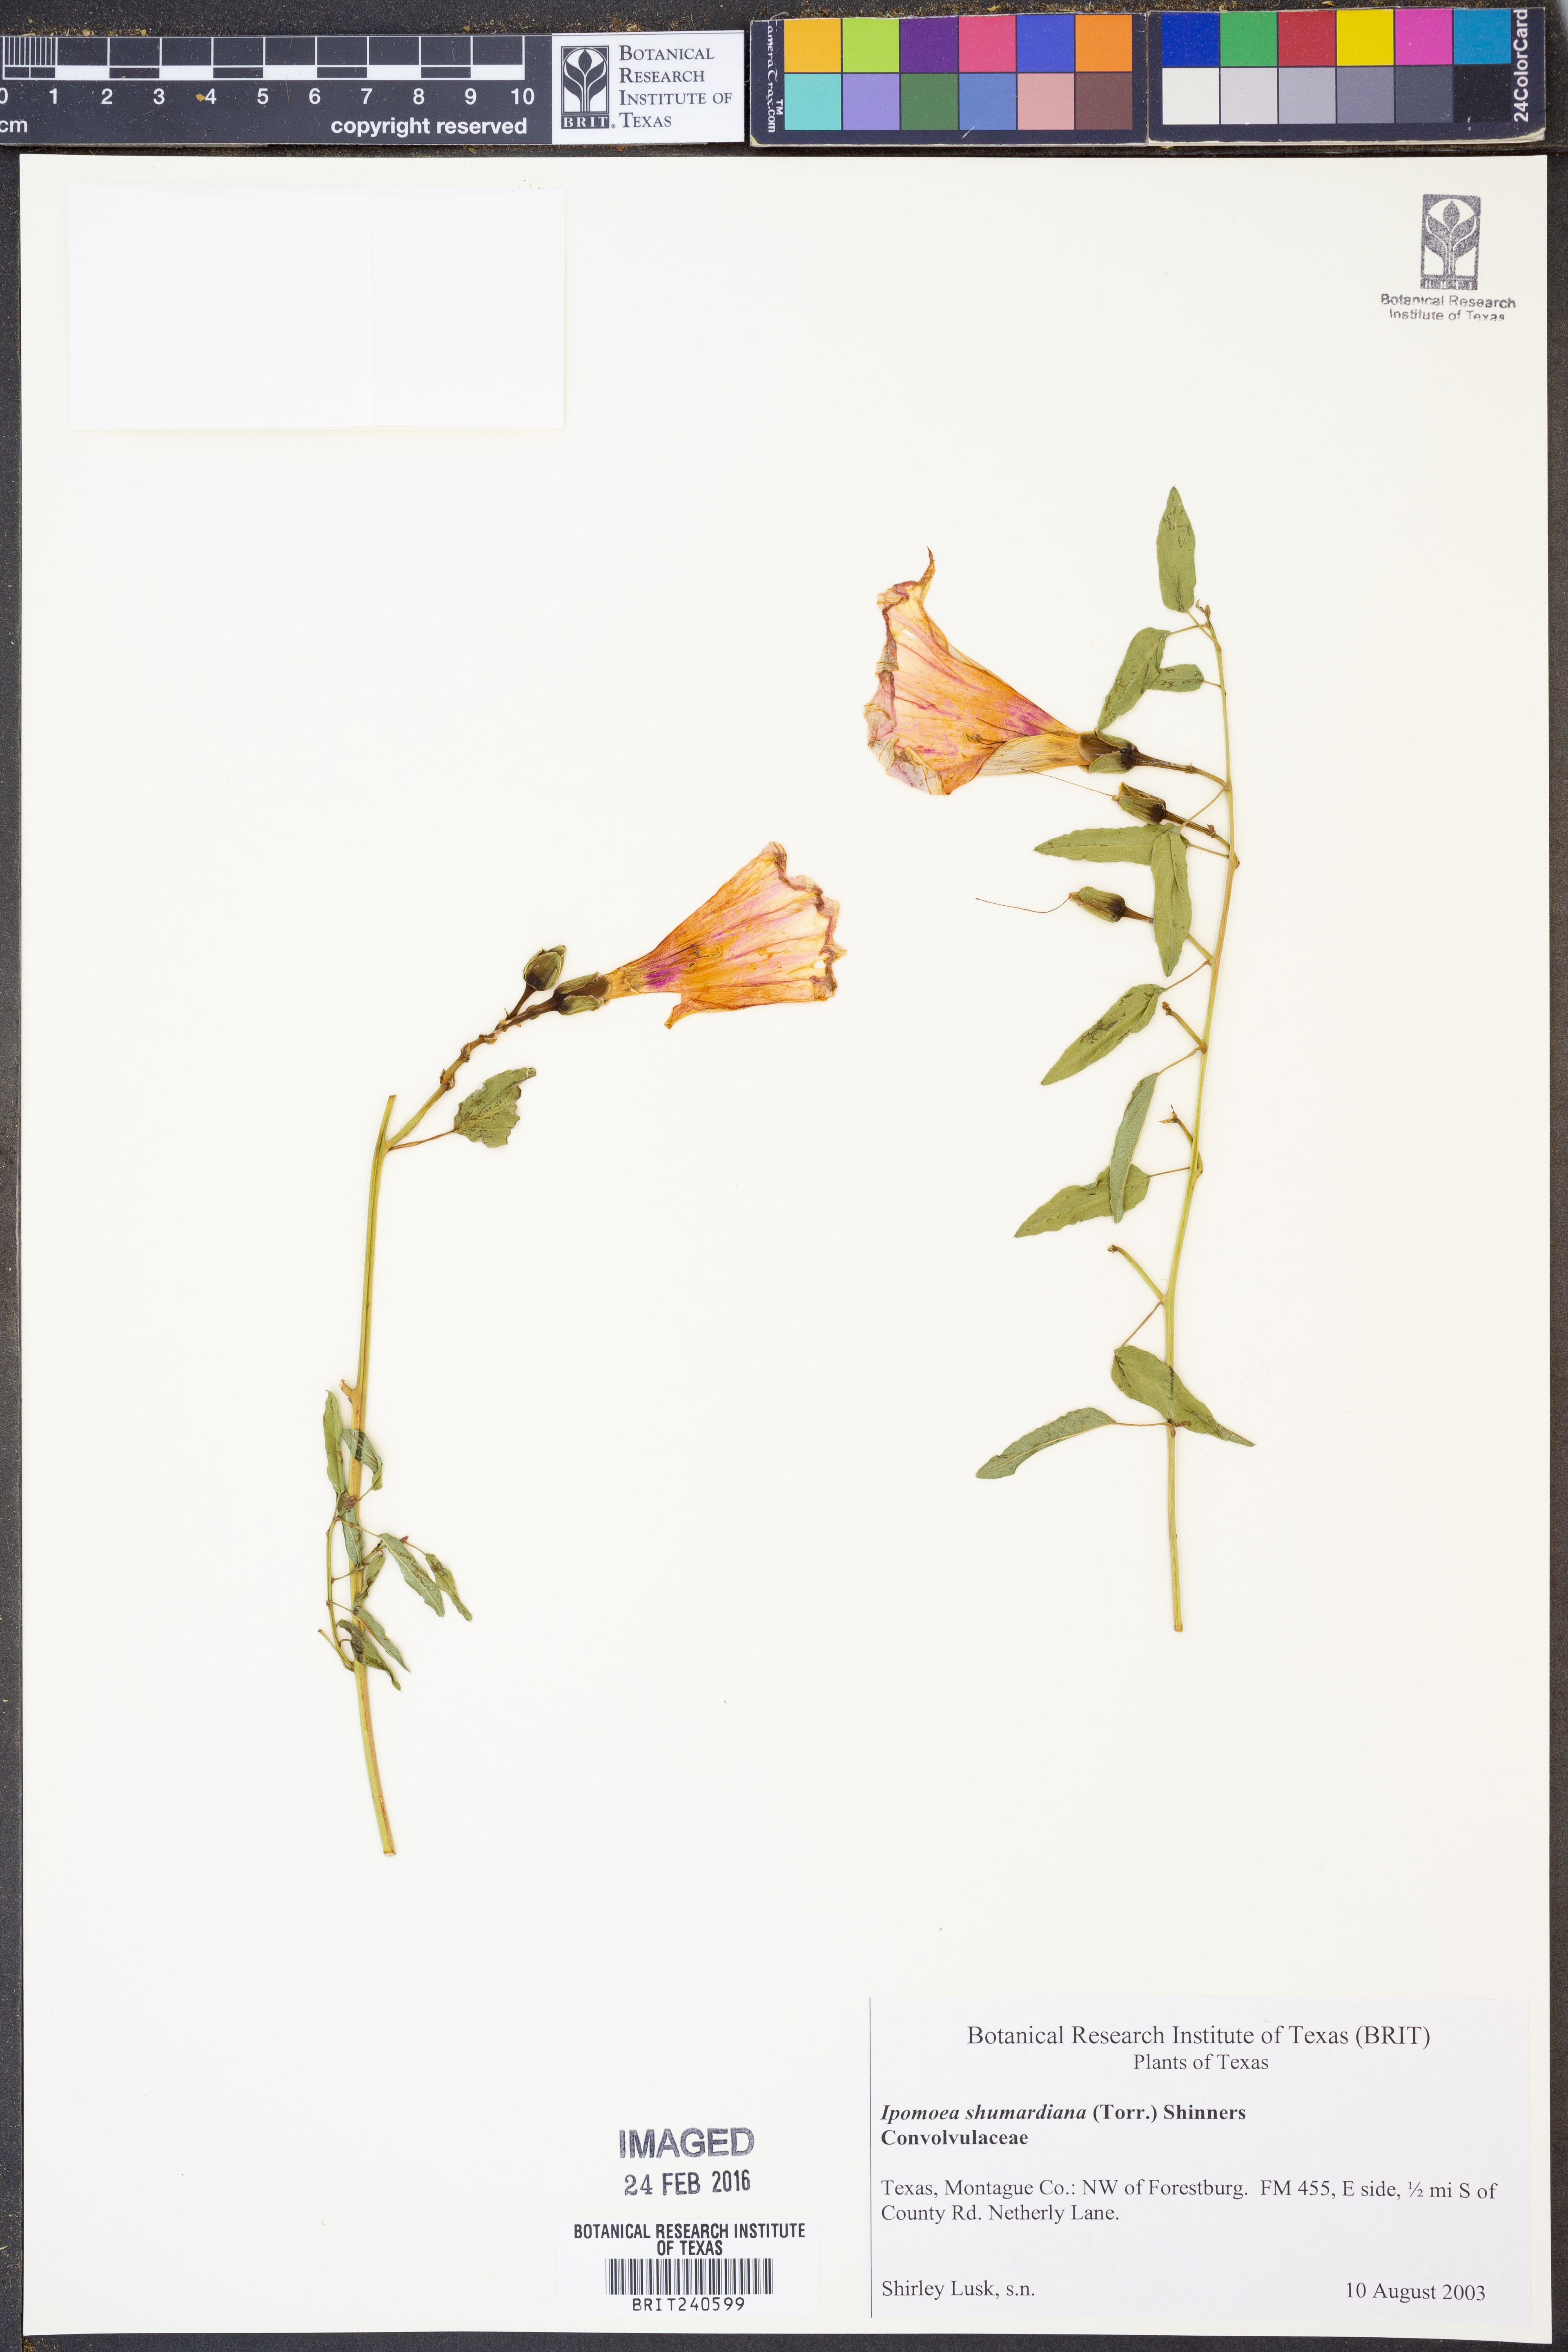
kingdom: Plantae
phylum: Tracheophyta
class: Magnoliopsida
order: Solanales
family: Convolvulaceae
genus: Ipomoea
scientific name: Ipomoea shumardiana
